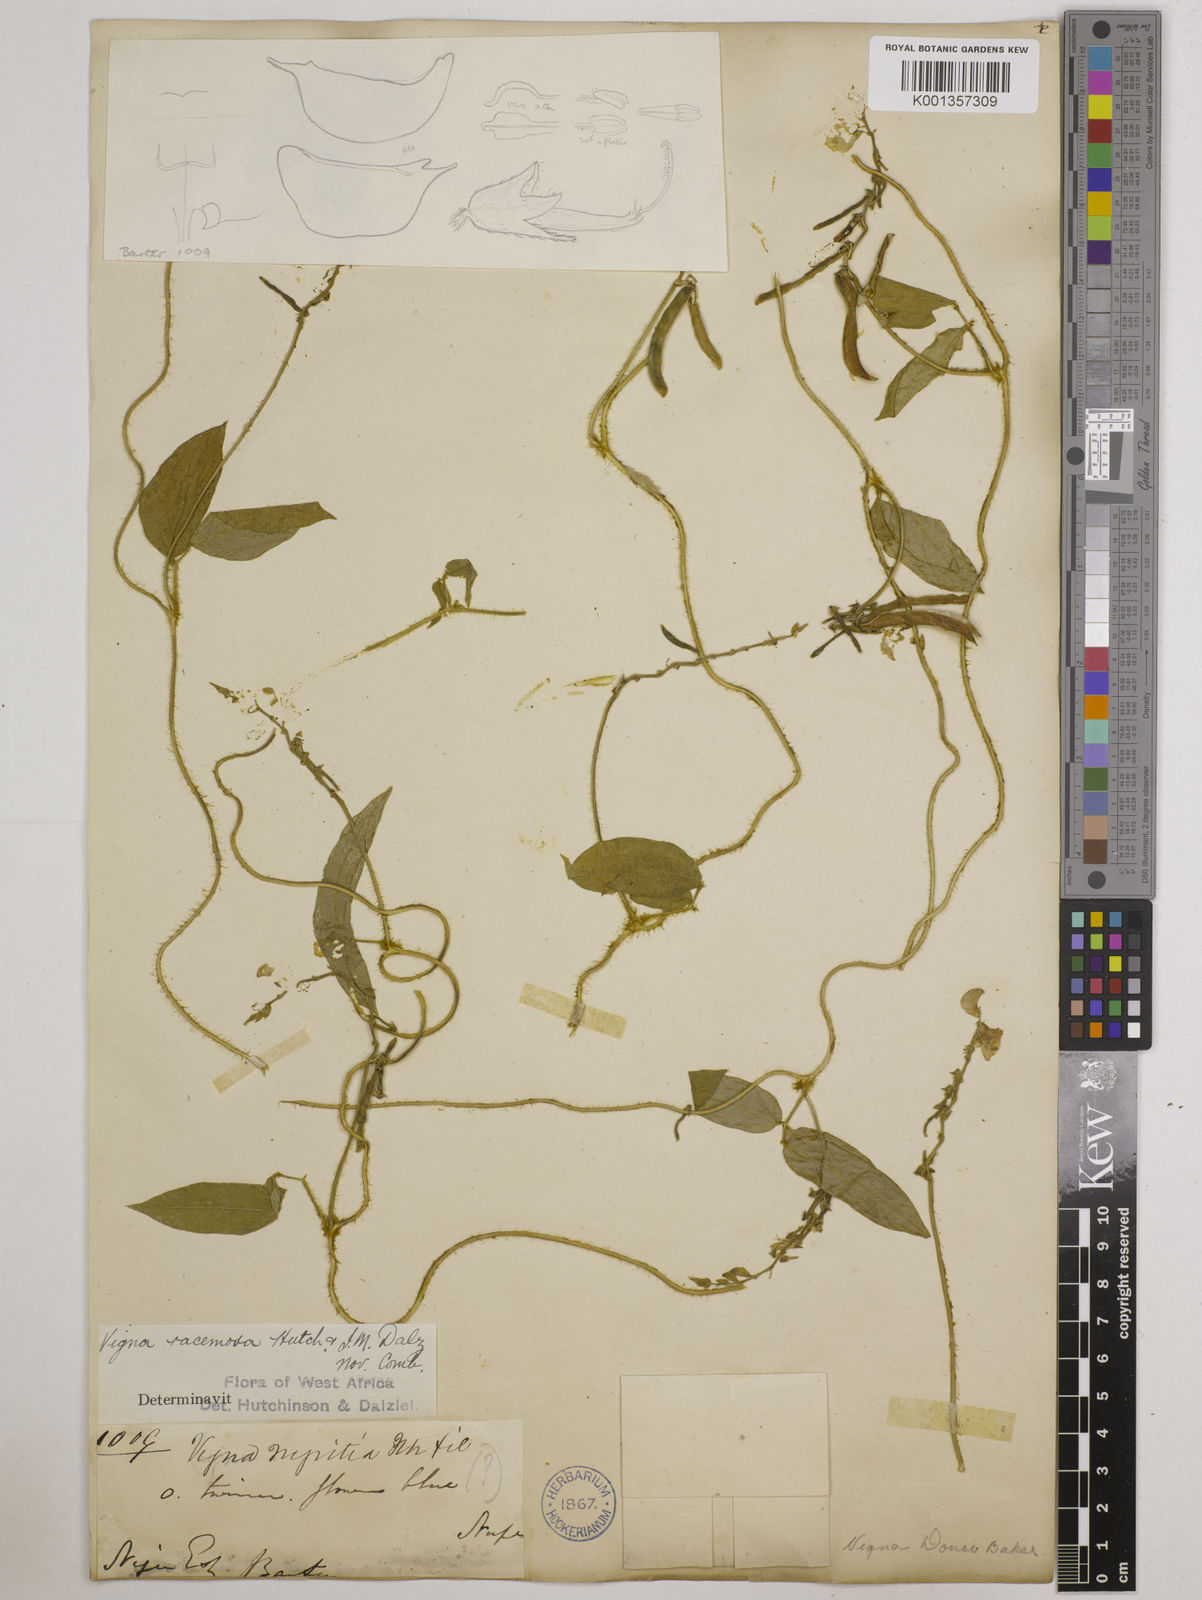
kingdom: Plantae
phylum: Tracheophyta
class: Magnoliopsida
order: Fabales
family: Fabaceae
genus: Vigna
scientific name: Vigna racemosa
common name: Beans not eaten
